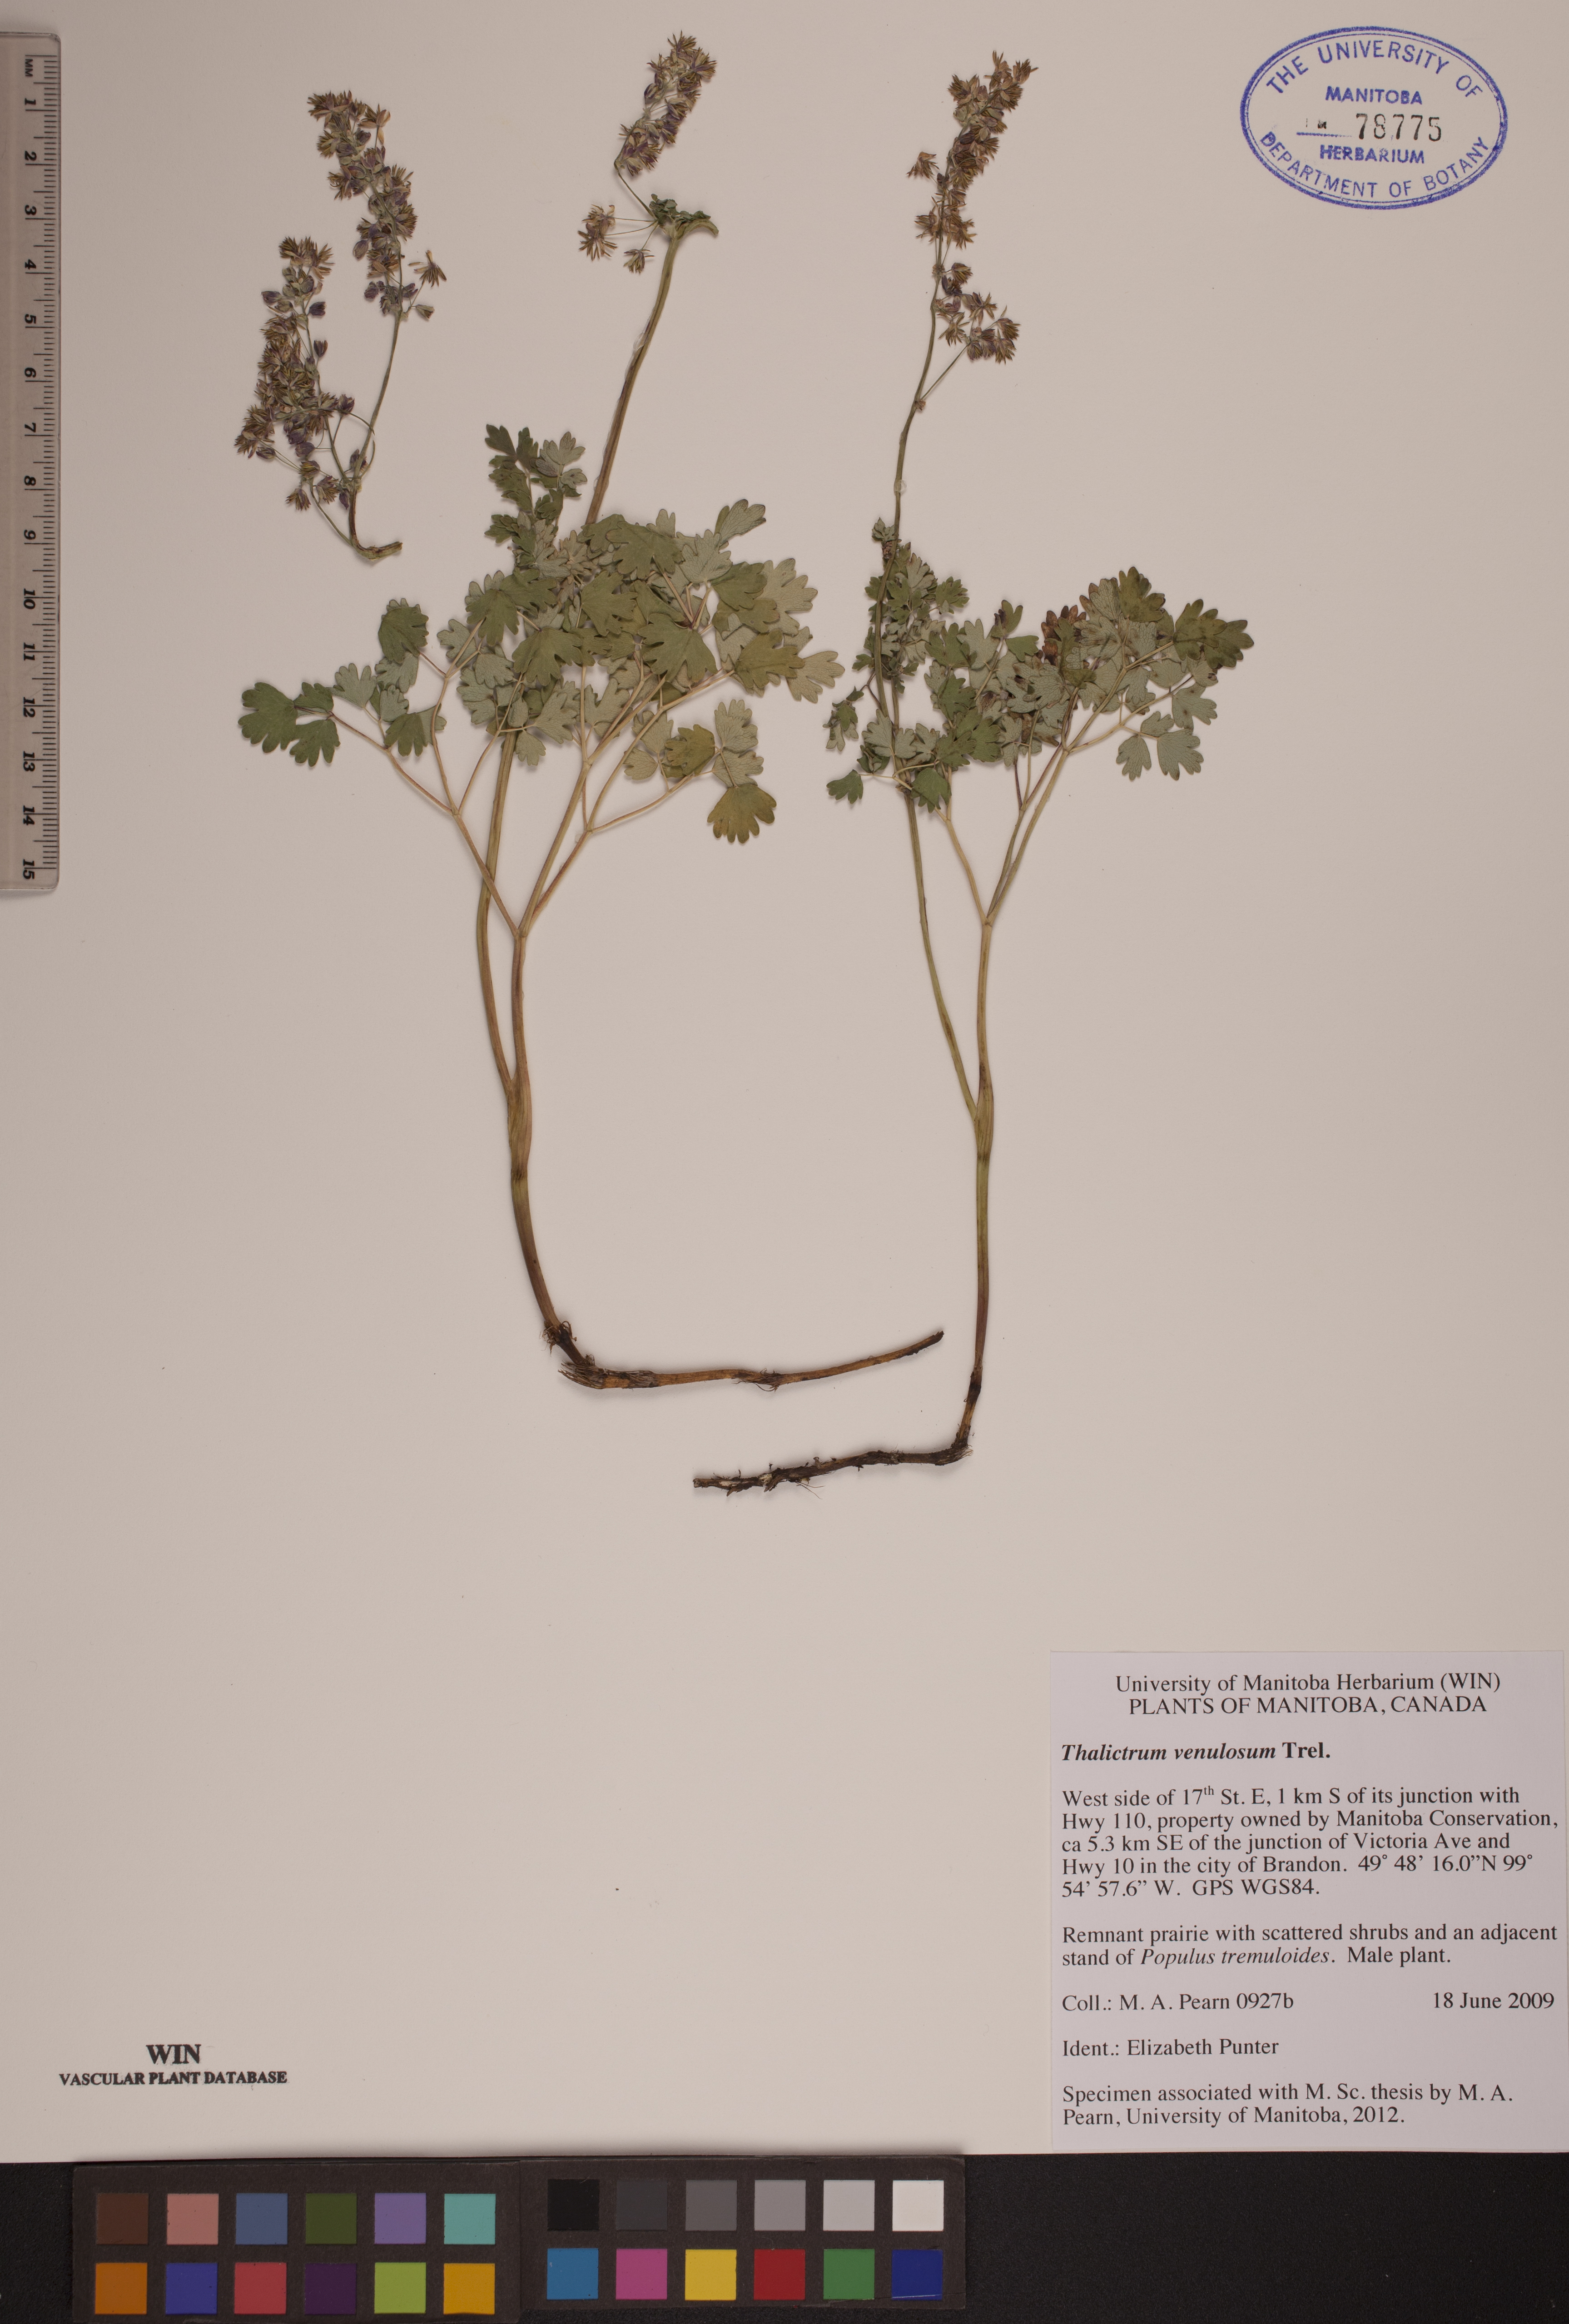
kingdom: Plantae
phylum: Tracheophyta
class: Magnoliopsida
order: Ranunculales
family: Ranunculaceae
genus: Thalictrum
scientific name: Thalictrum venulosum
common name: Early meadow-rue
